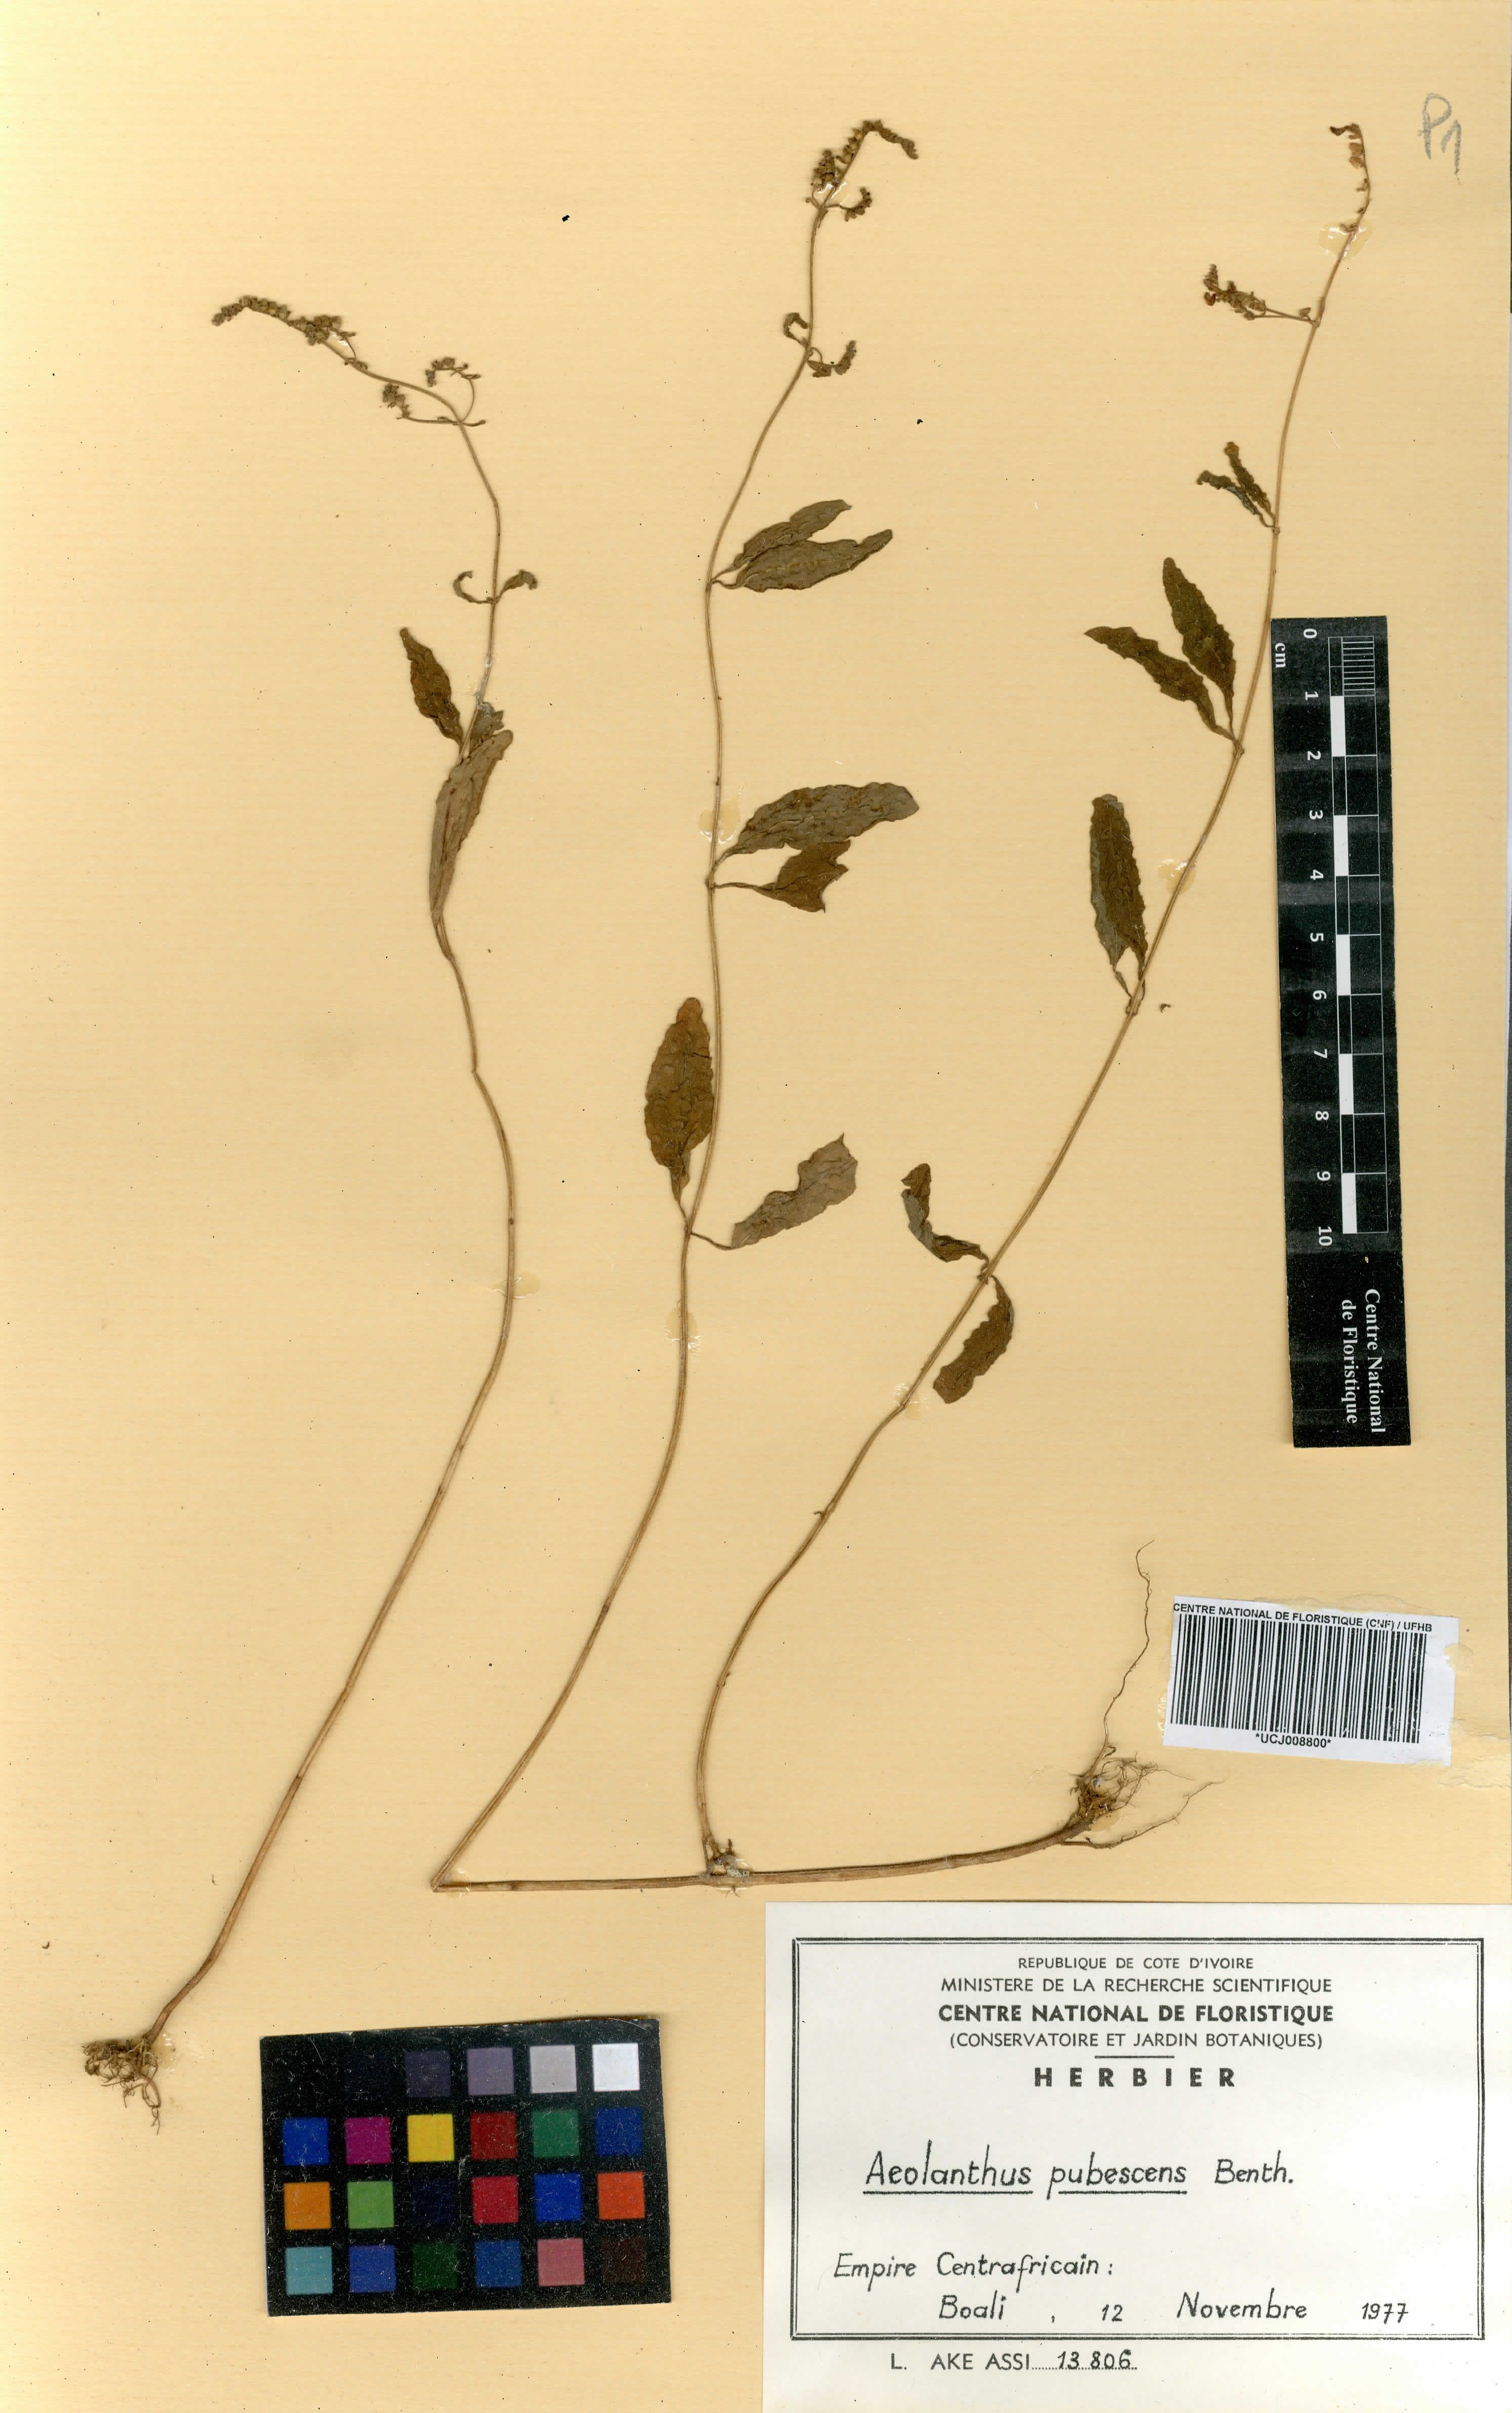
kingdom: Plantae
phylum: Tracheophyta
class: Magnoliopsida
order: Lamiales
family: Lamiaceae
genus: Aeollanthus
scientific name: Aeollanthus pubescens
